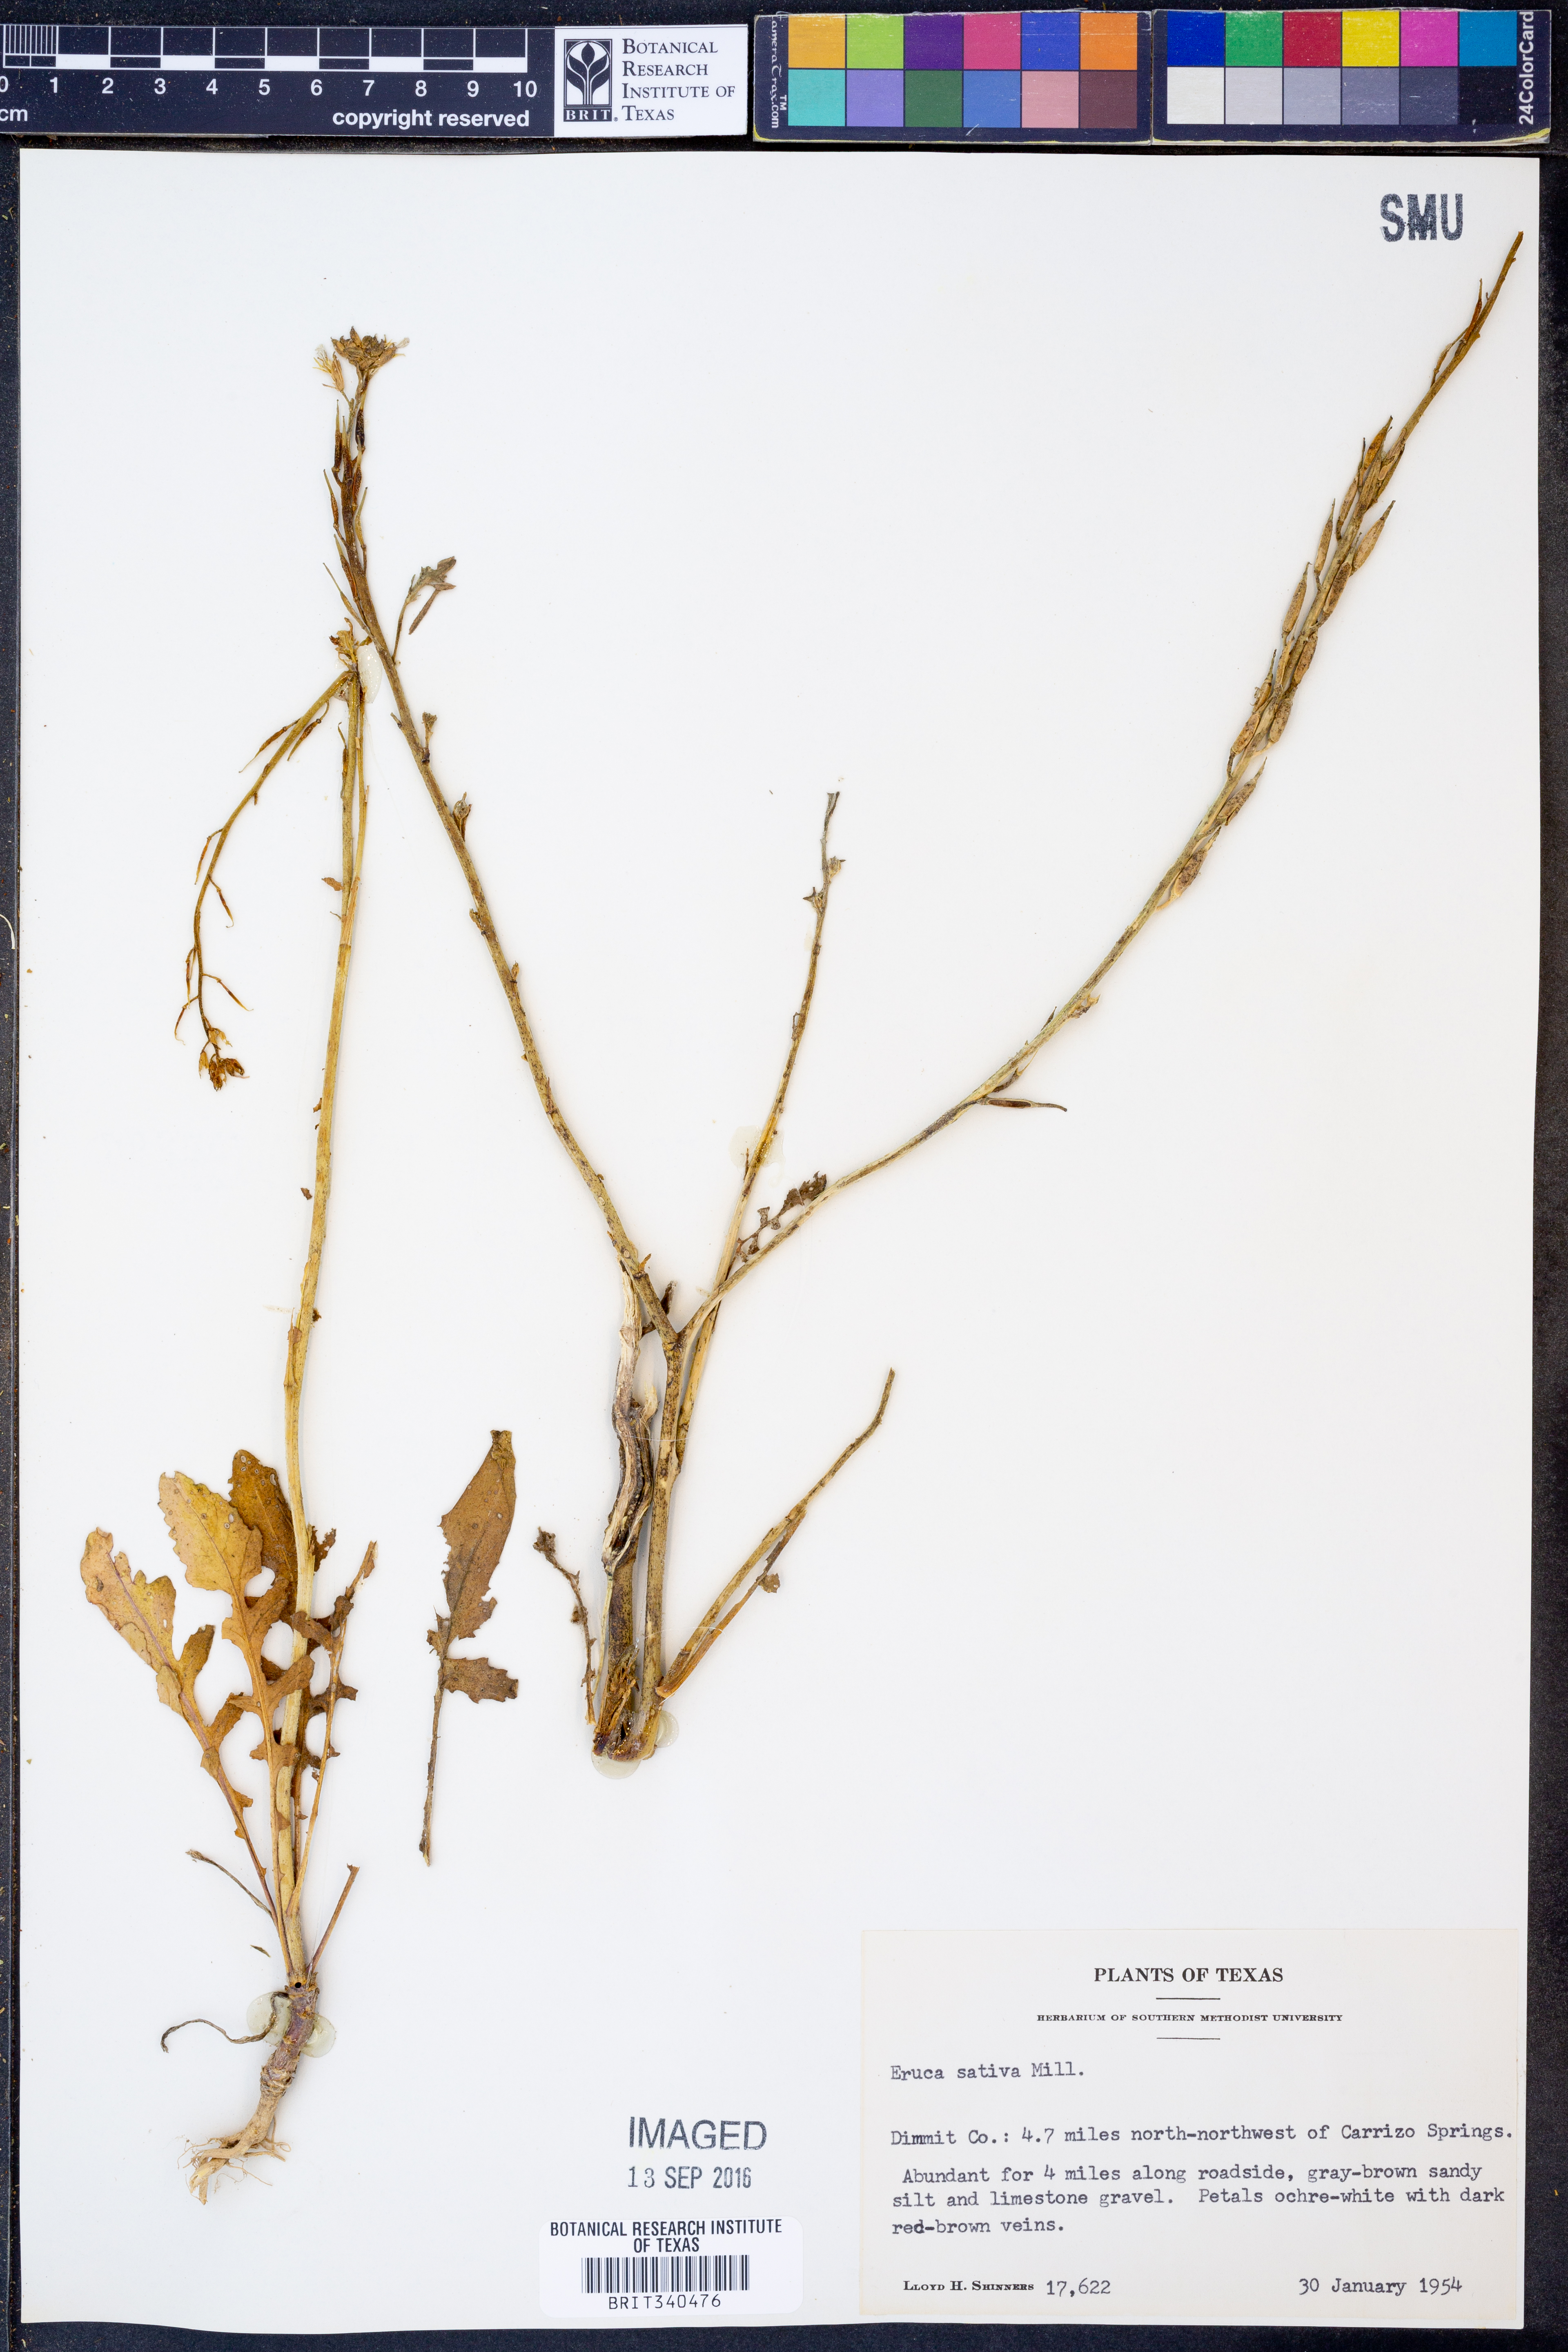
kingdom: Plantae
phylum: Tracheophyta
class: Magnoliopsida
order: Brassicales
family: Brassicaceae
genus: Eruca
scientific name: Eruca vesicaria
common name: Garden rocket
